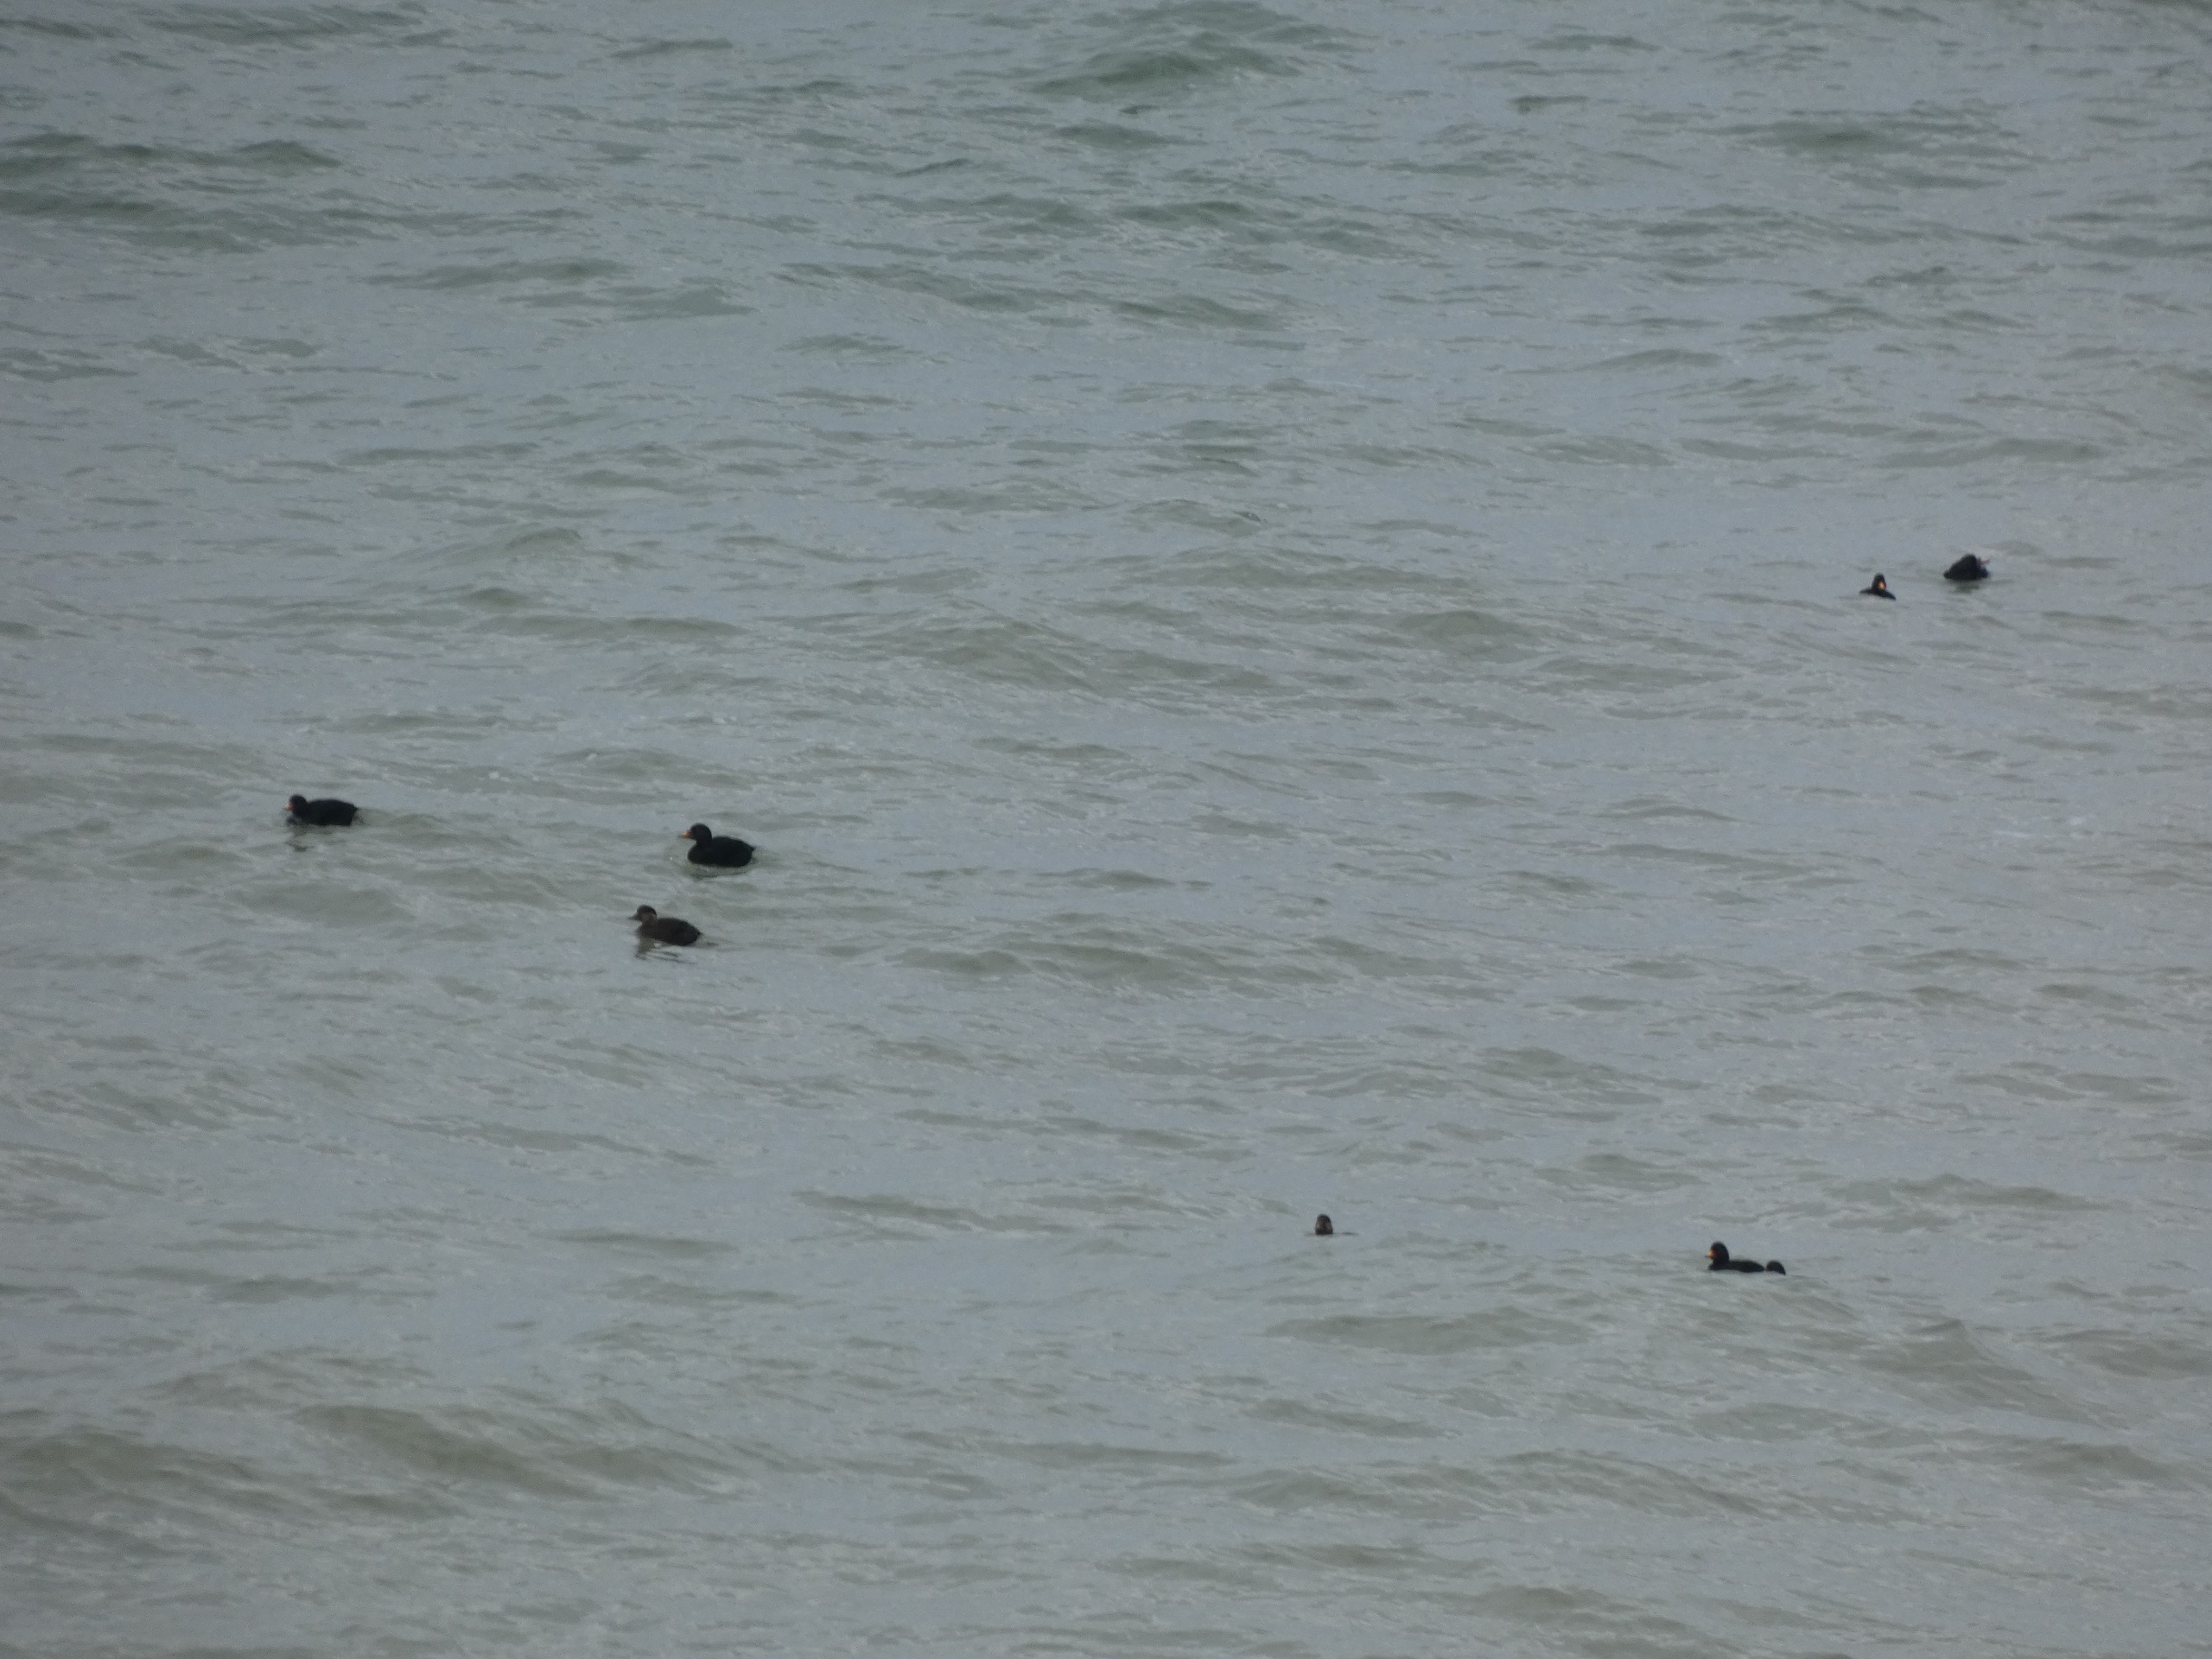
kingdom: Animalia
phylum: Chordata
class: Aves
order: Anseriformes
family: Anatidae
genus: Melanitta
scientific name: Melanitta nigra
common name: Sortand
